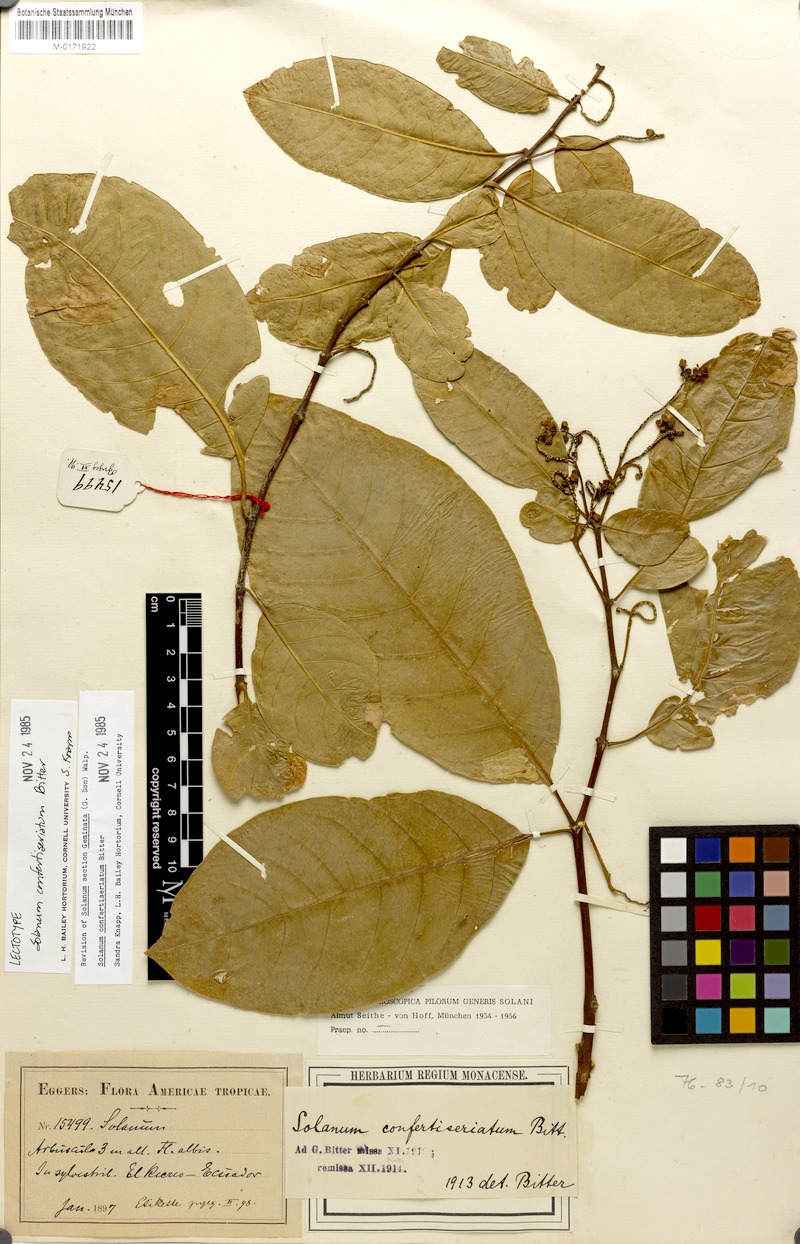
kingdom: Plantae
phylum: Tracheophyta
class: Magnoliopsida
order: Solanales
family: Solanaceae
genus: Solanum
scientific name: Solanum rovirosanum
